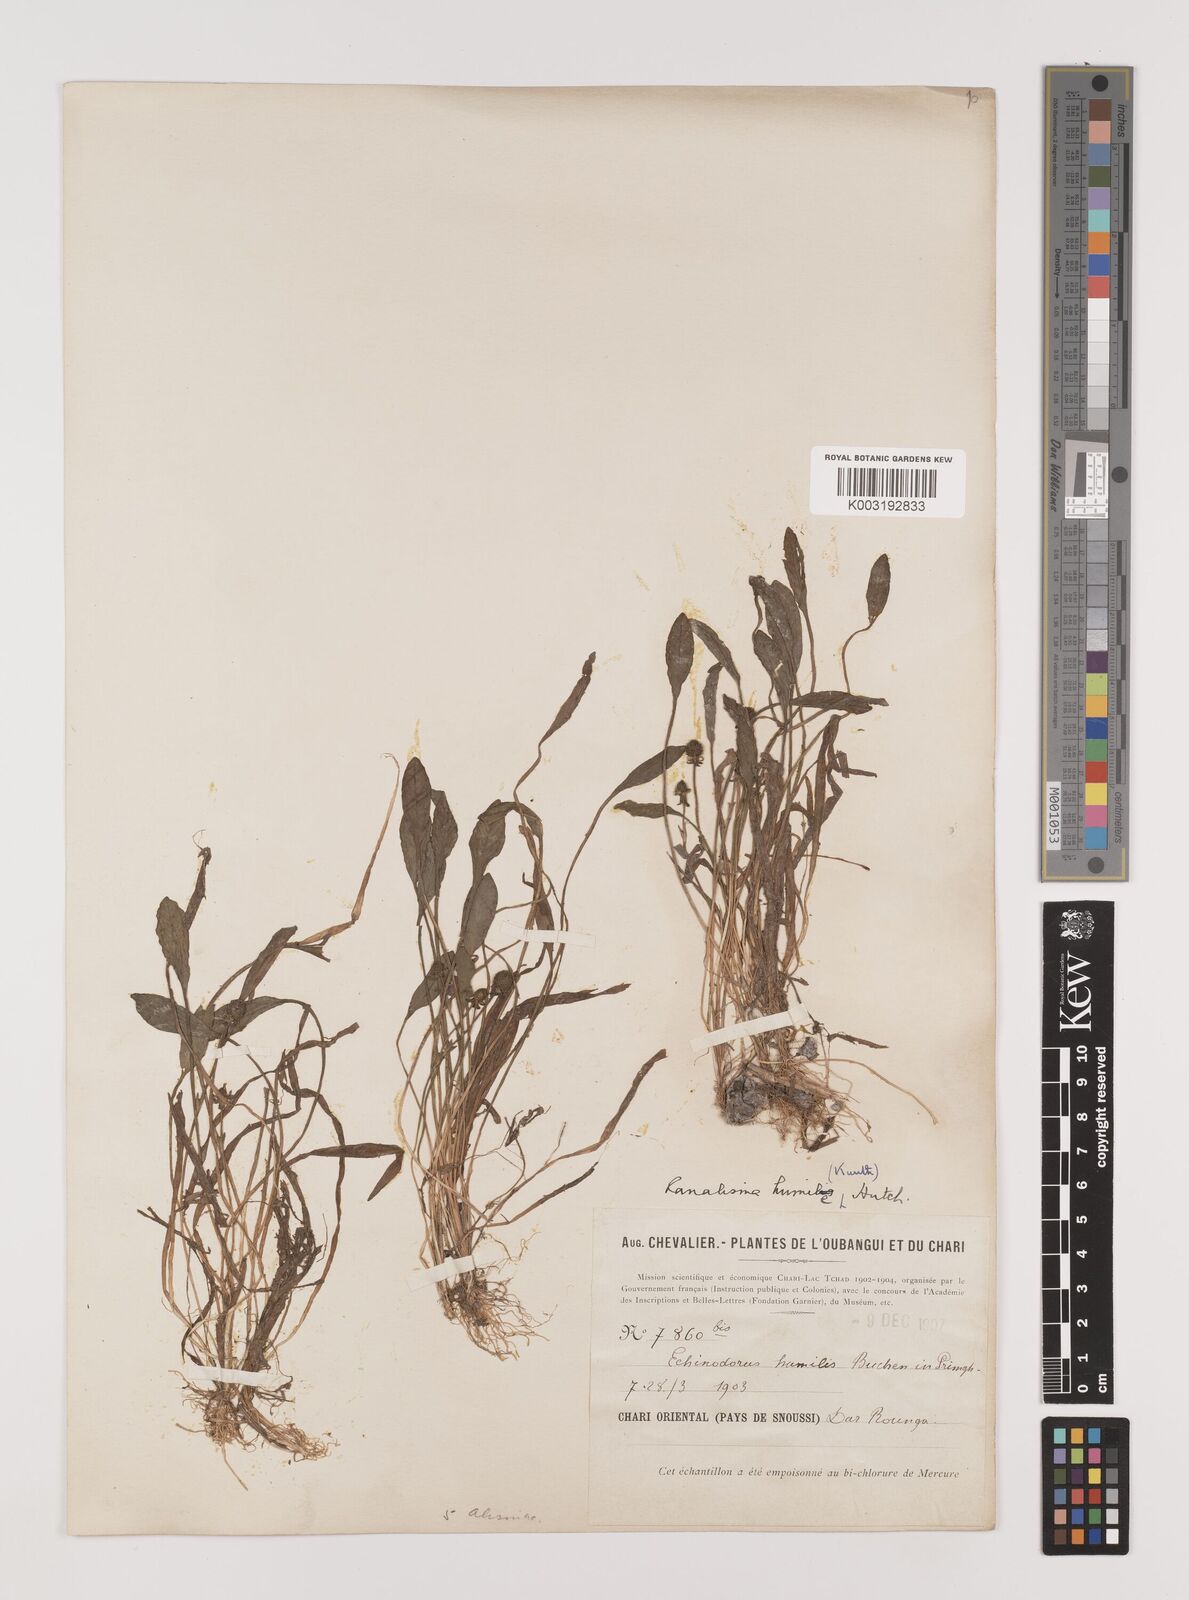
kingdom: Plantae
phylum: Tracheophyta
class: Liliopsida
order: Alismatales
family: Alismataceae
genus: Ranalisma
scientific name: Ranalisma humile
